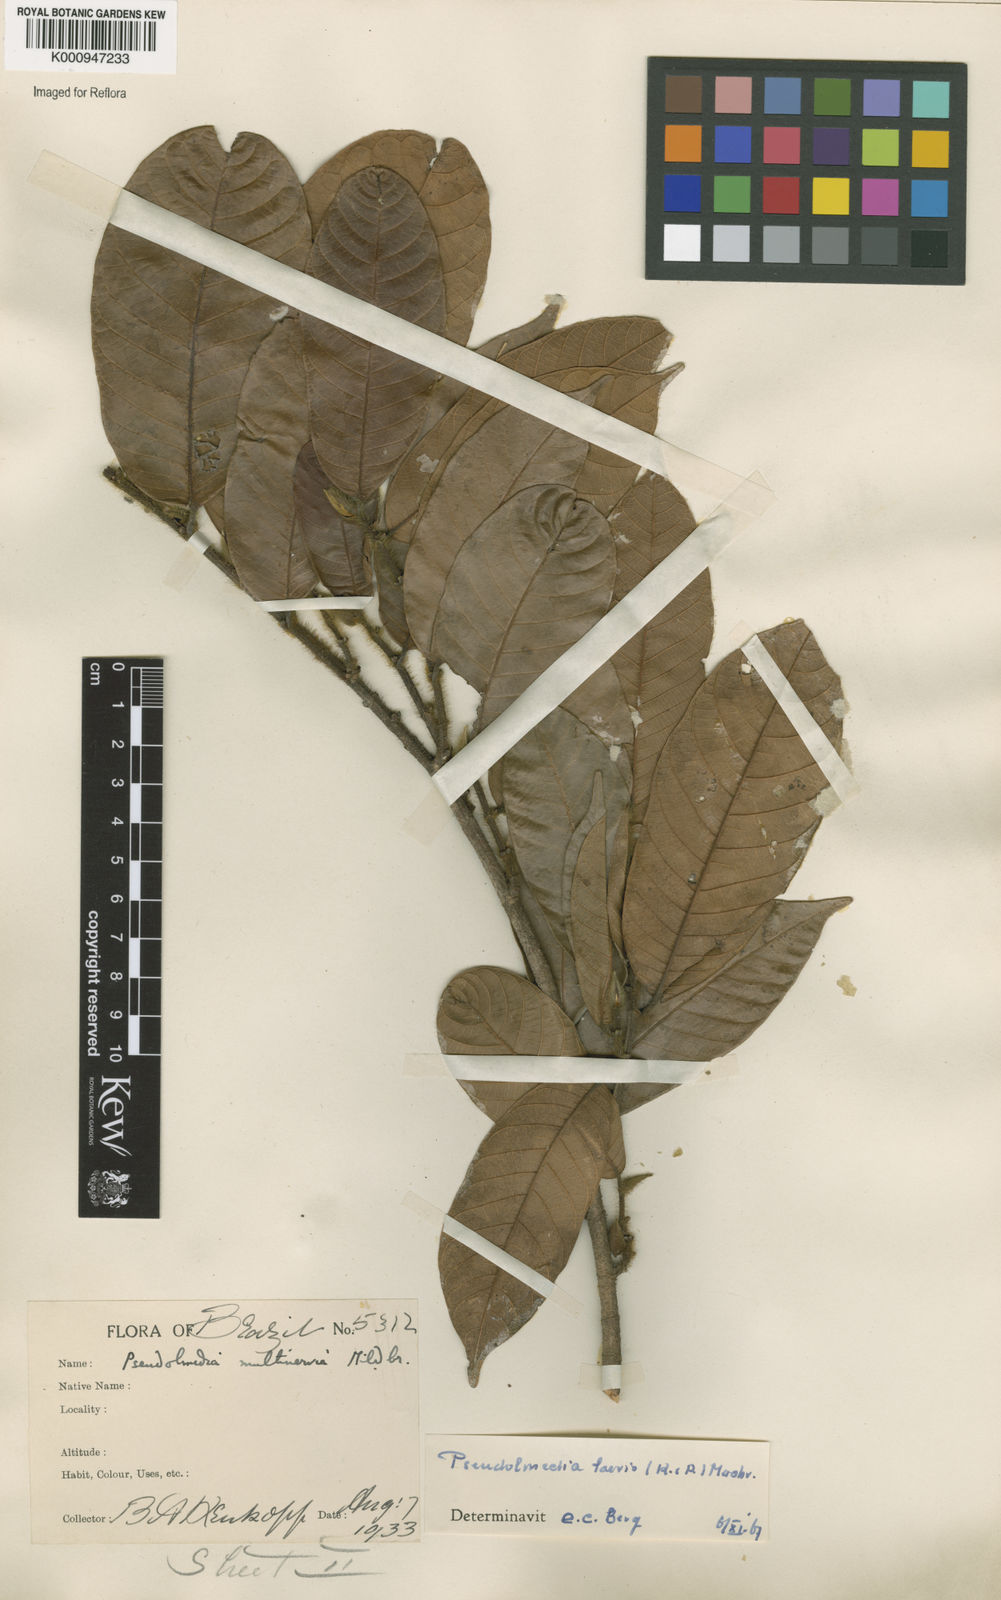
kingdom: Plantae
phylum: Tracheophyta
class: Magnoliopsida
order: Rosales
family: Moraceae
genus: Pseudolmedia
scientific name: Pseudolmedia laevis
